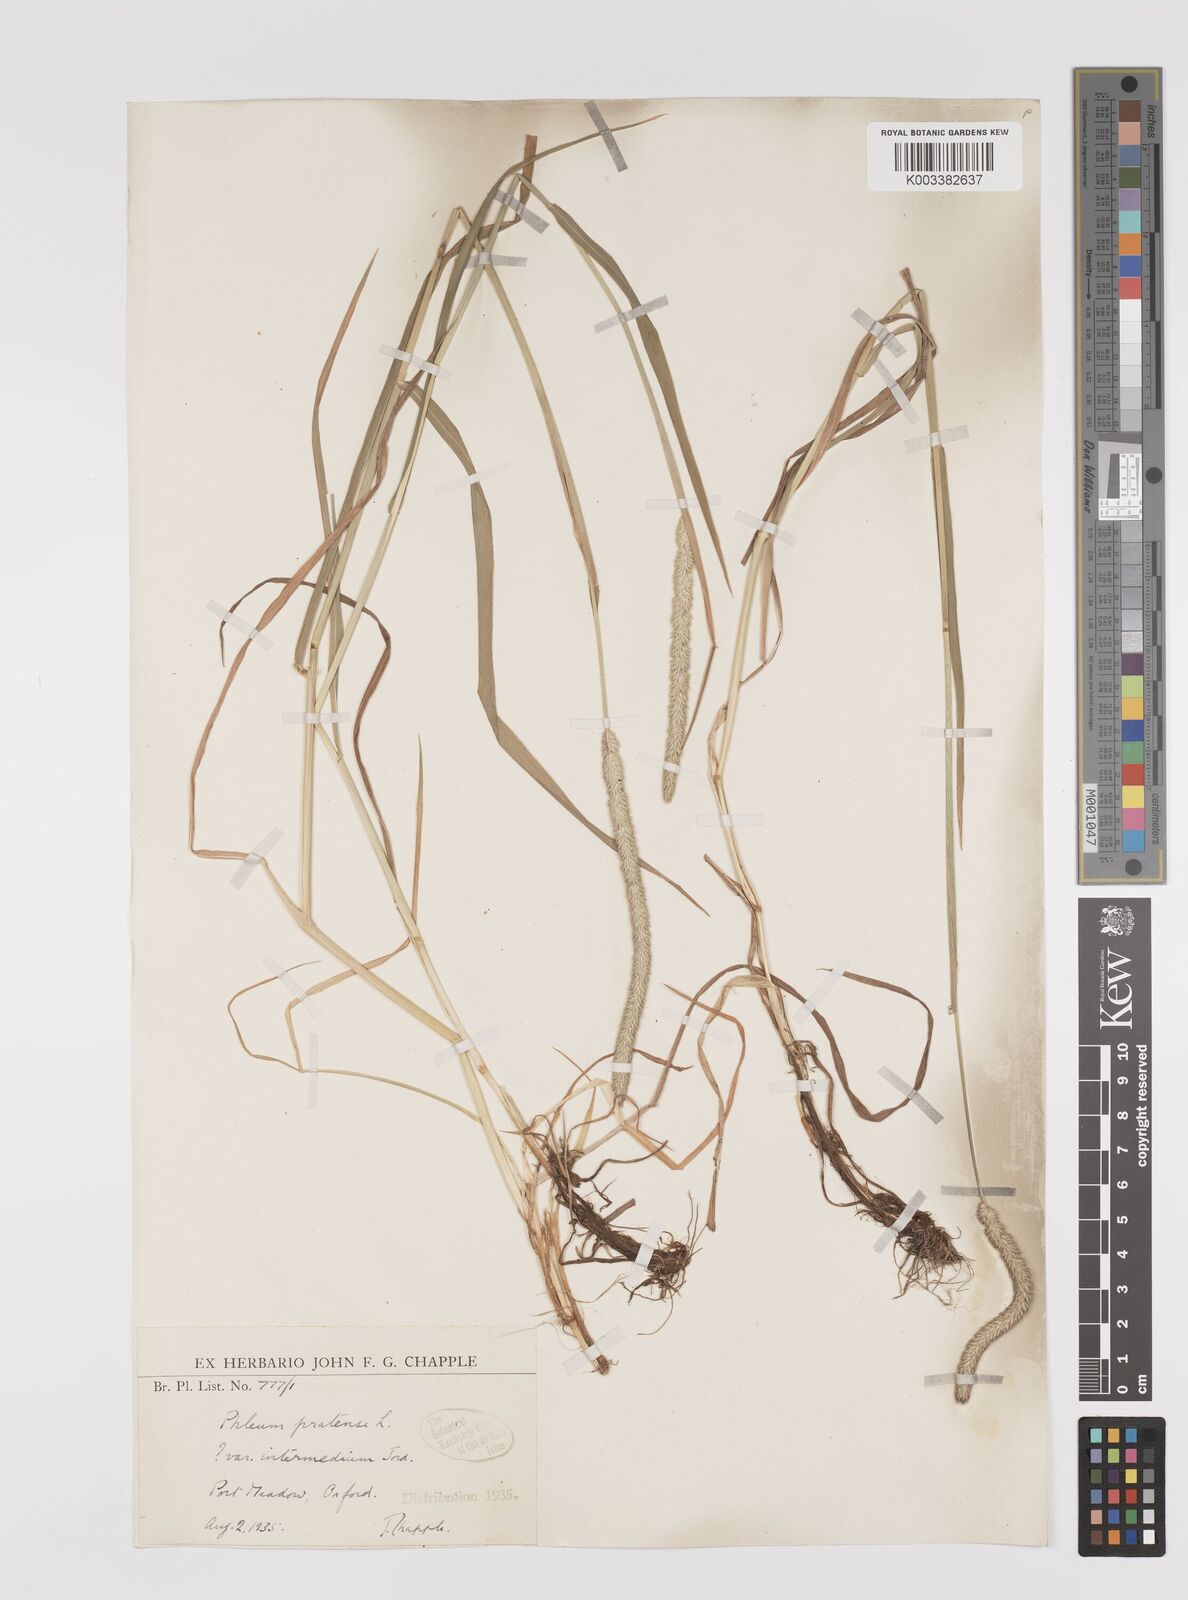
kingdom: Plantae
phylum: Tracheophyta
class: Liliopsida
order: Poales
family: Poaceae
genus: Phleum
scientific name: Phleum pratense
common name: Timothy grass
